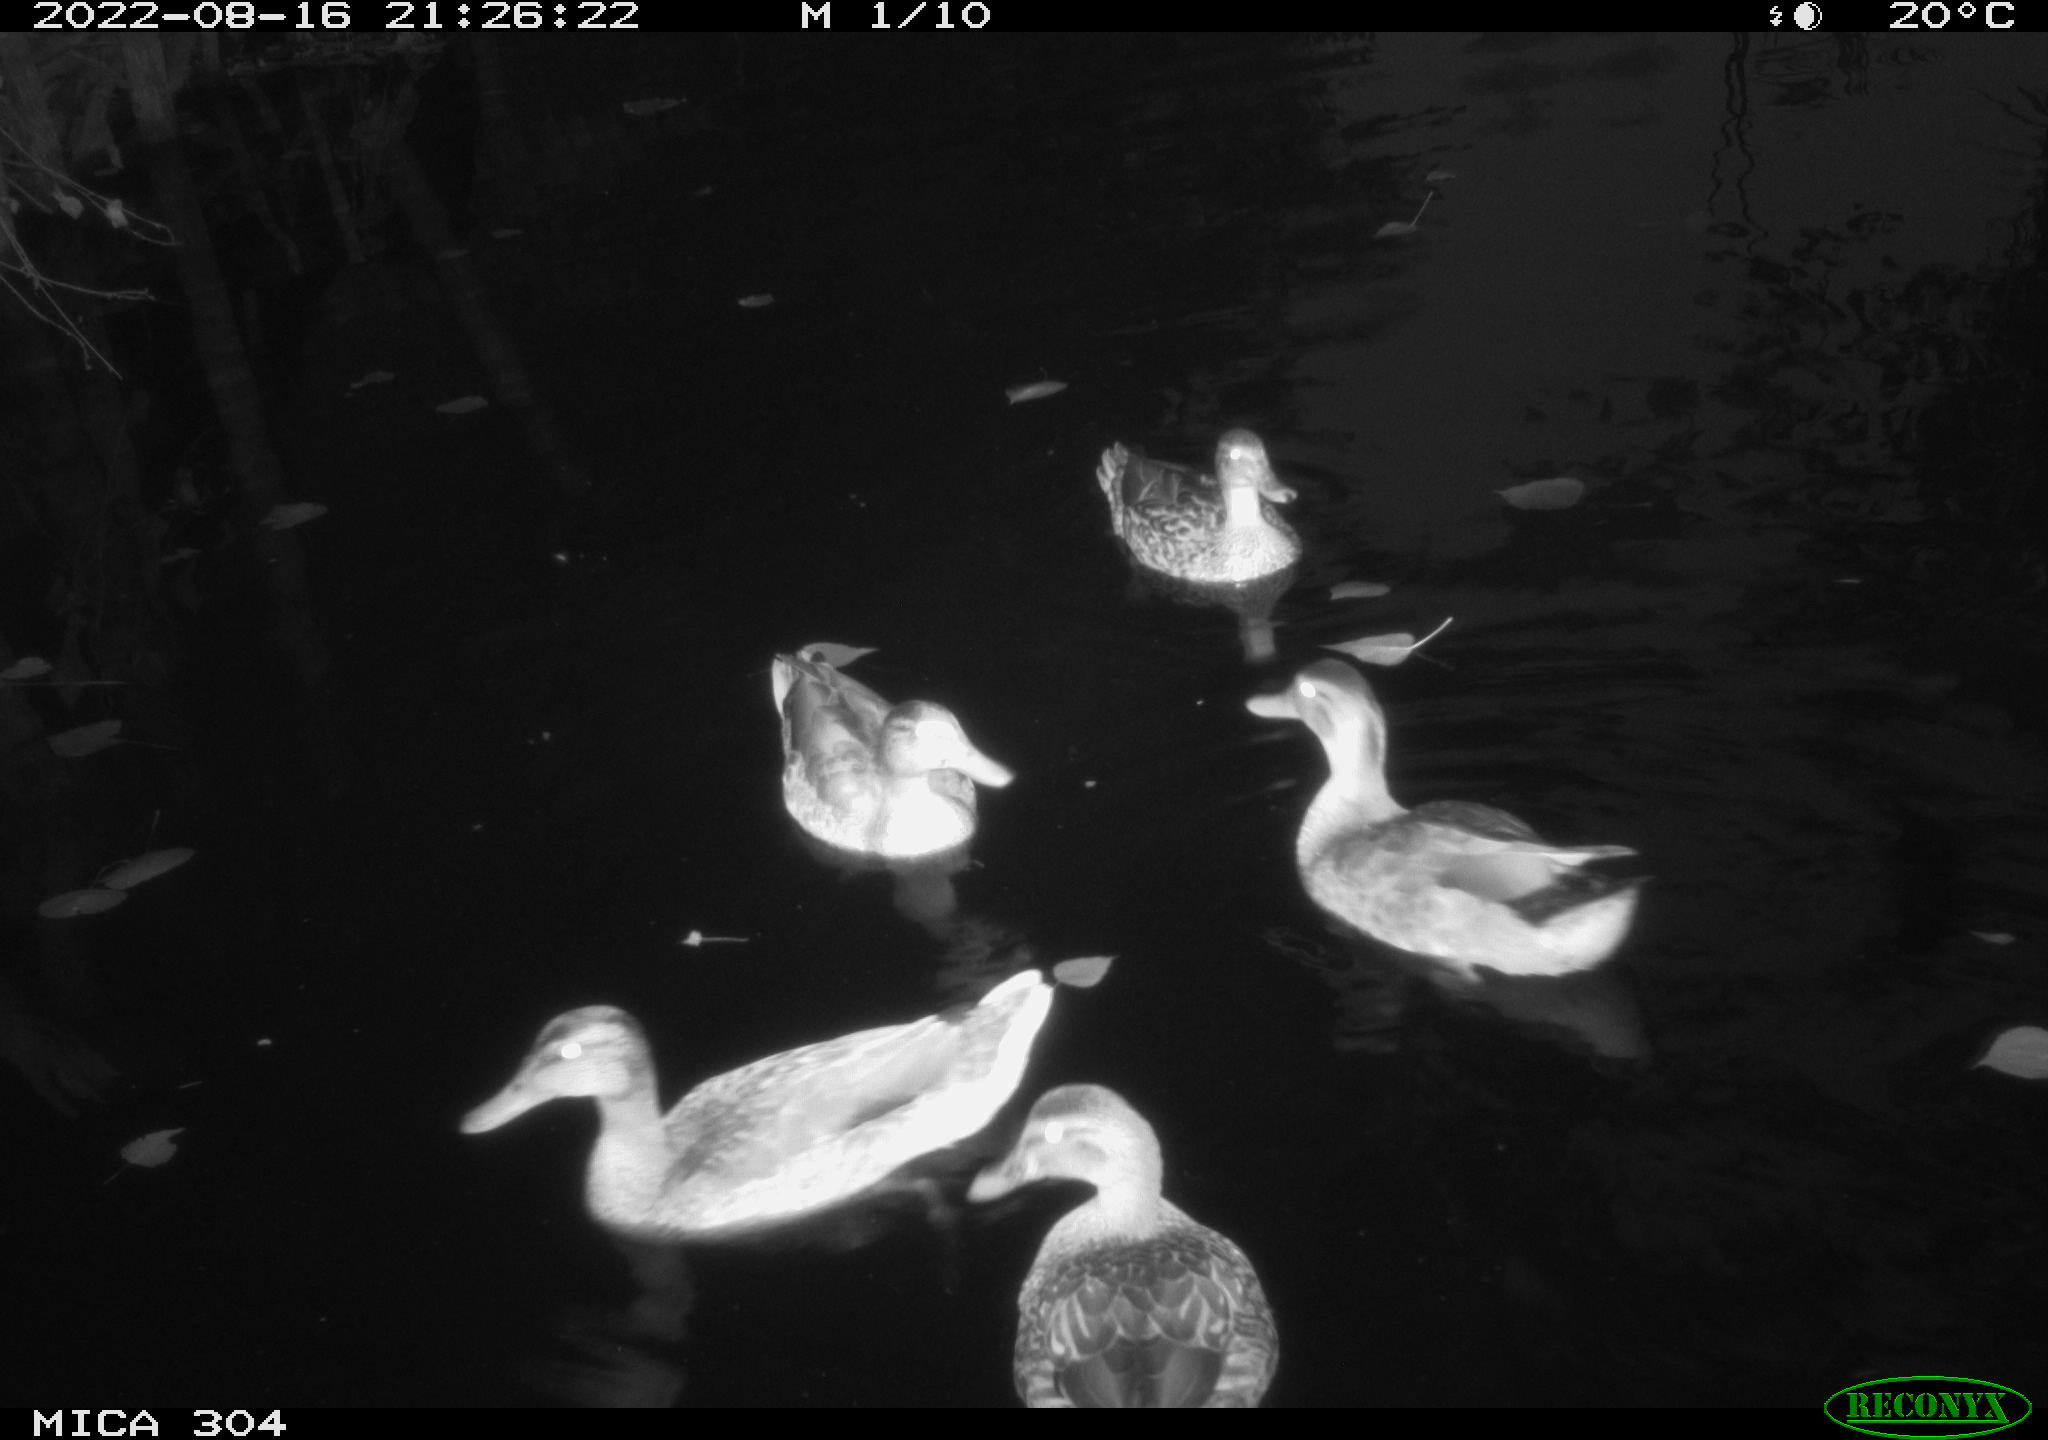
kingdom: Animalia
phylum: Chordata
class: Aves
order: Anseriformes
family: Anatidae
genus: Mareca
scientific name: Mareca strepera
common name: Gadwall
